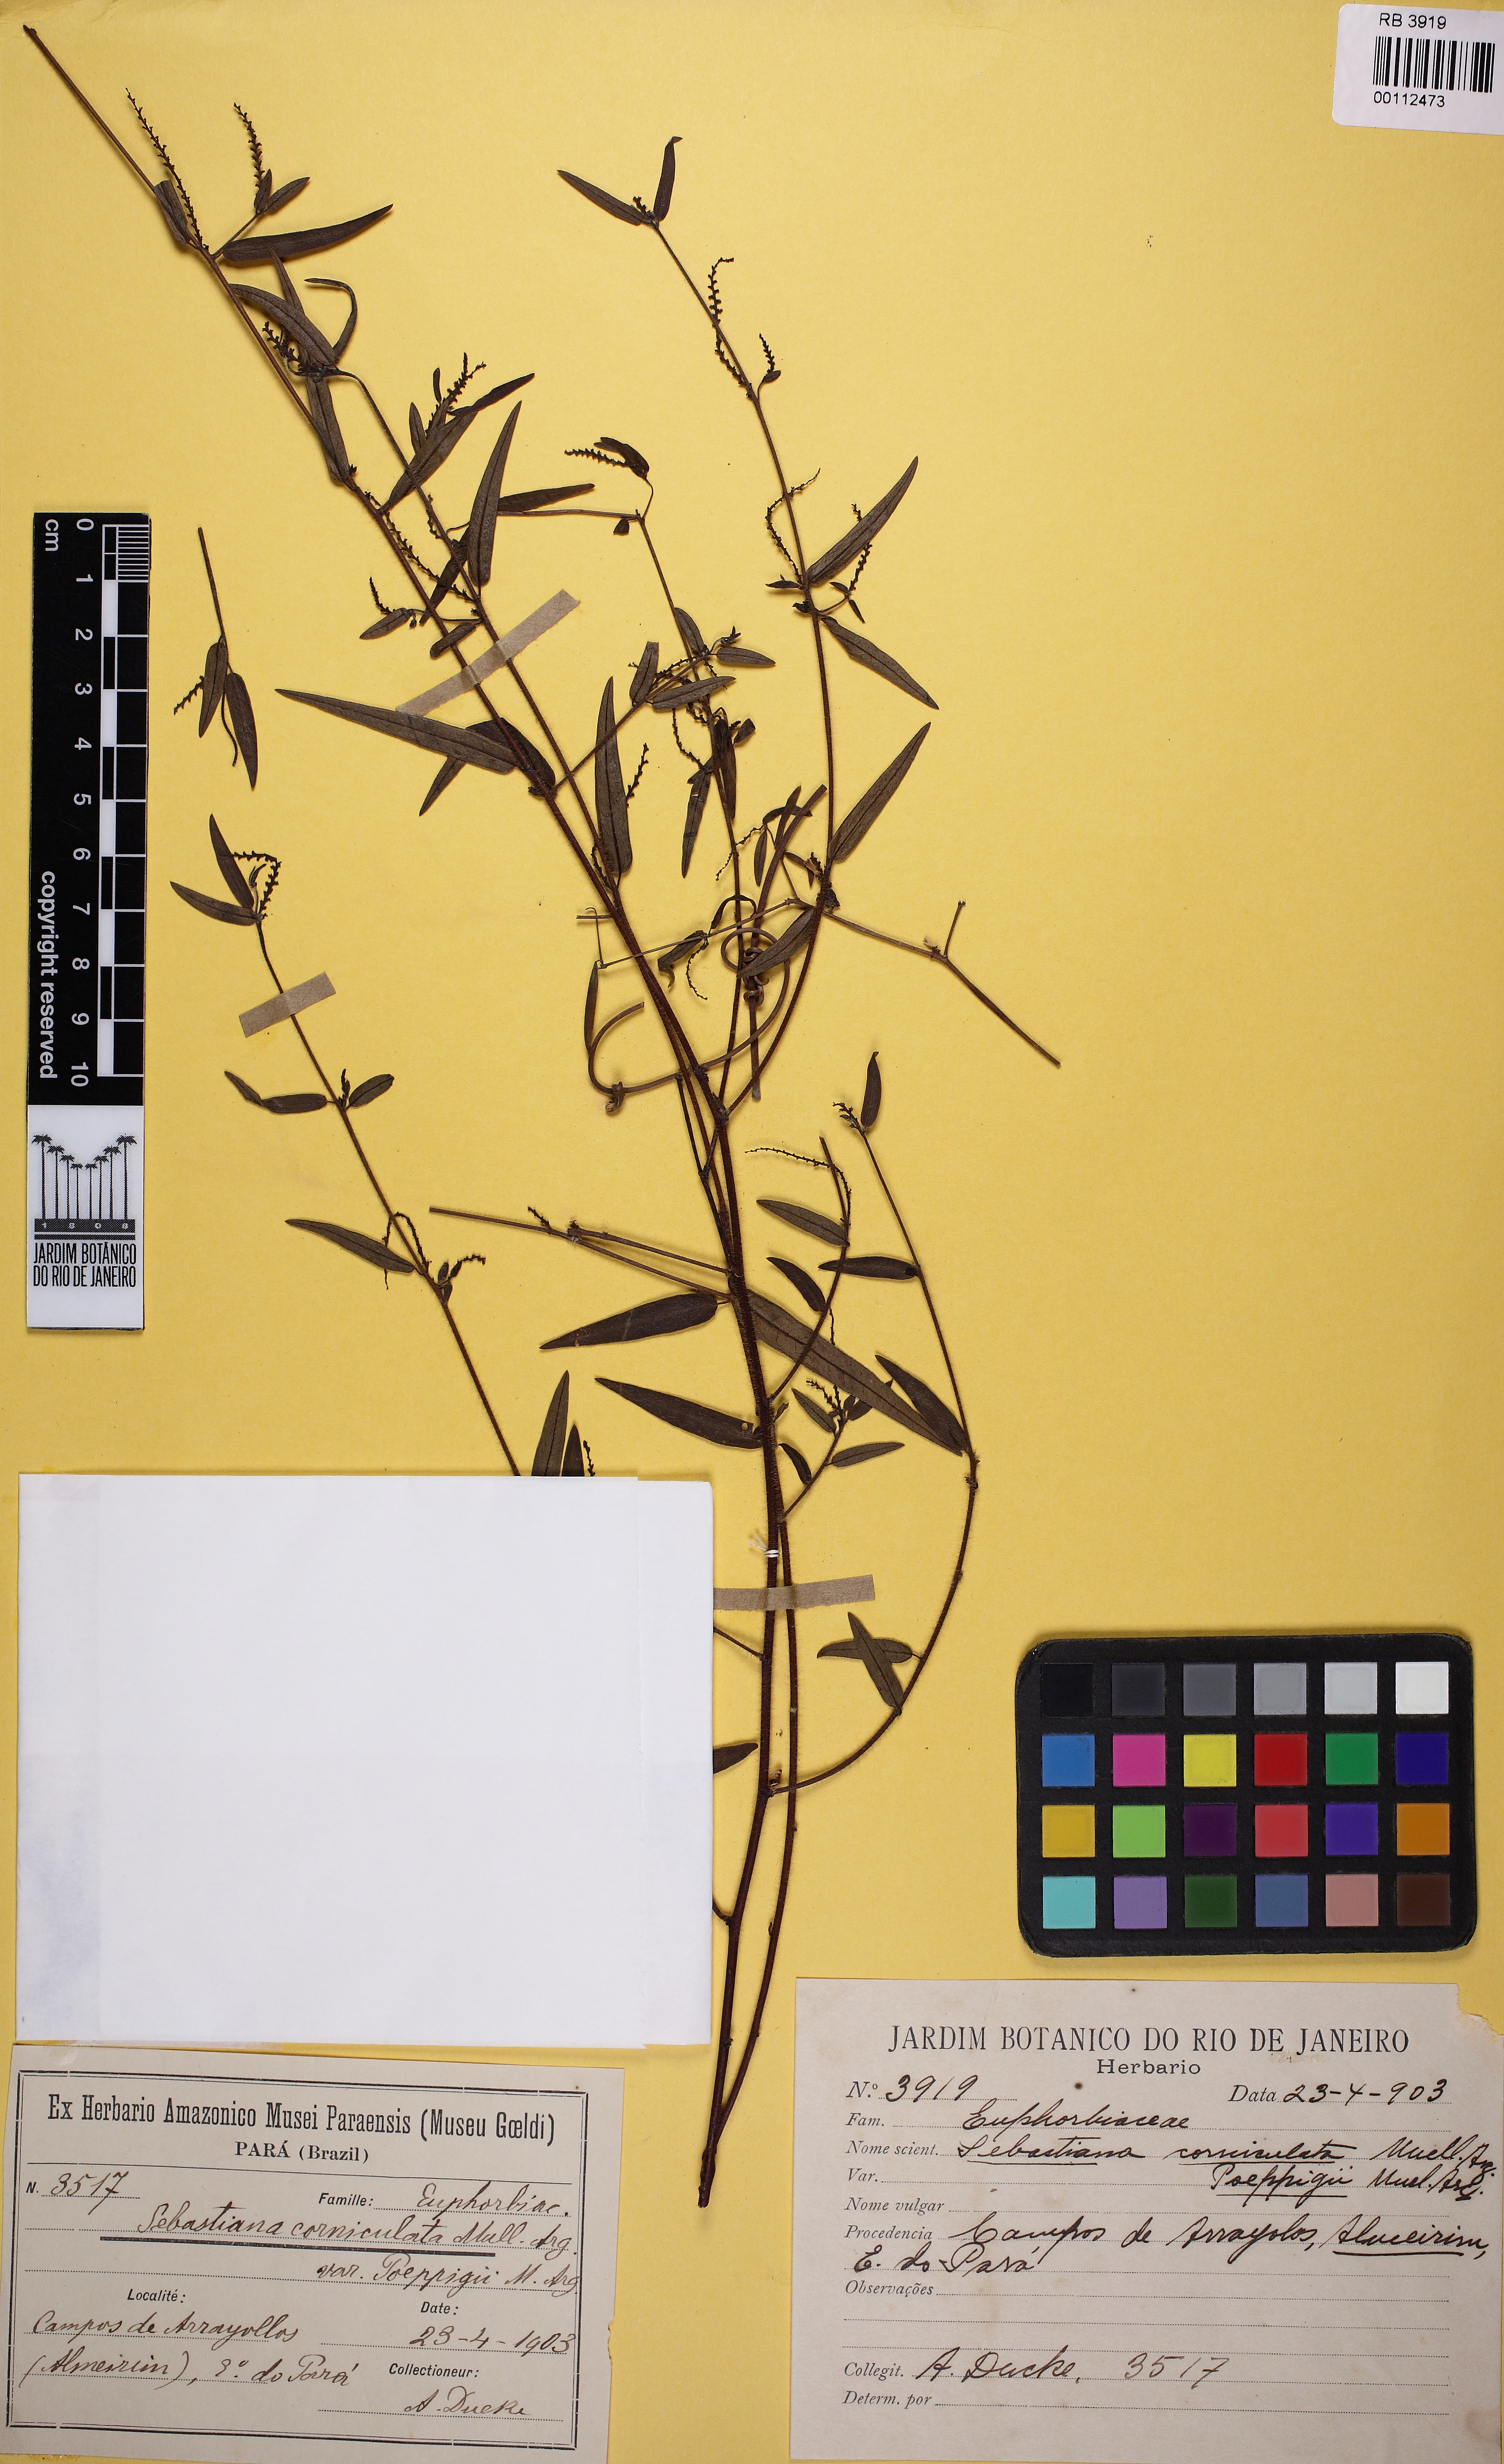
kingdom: Plantae
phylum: Tracheophyta
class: Magnoliopsida
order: Malpighiales
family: Euphorbiaceae
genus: Microstachys
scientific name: Microstachys
